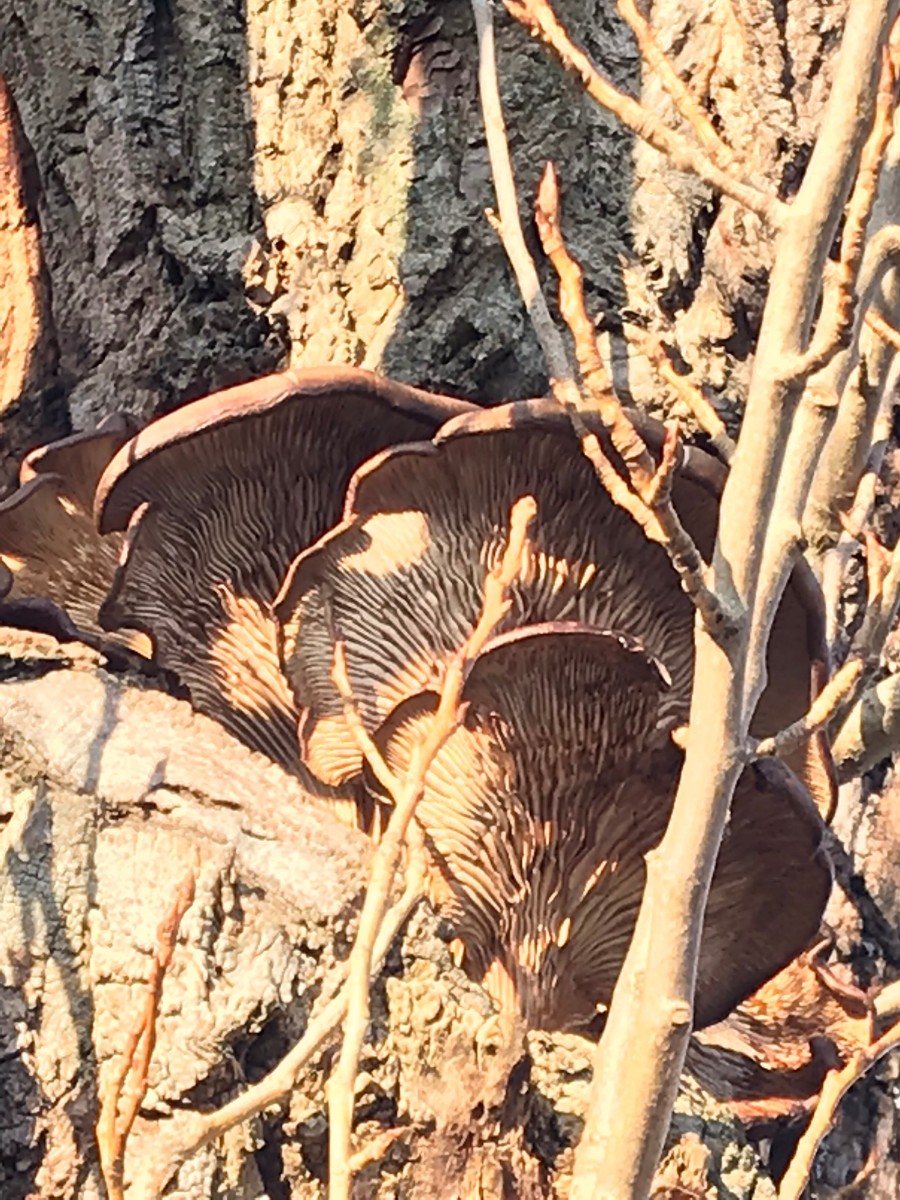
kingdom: Fungi
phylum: Basidiomycota
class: Agaricomycetes
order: Agaricales
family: Pleurotaceae
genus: Pleurotus
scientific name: Pleurotus ostreatus
